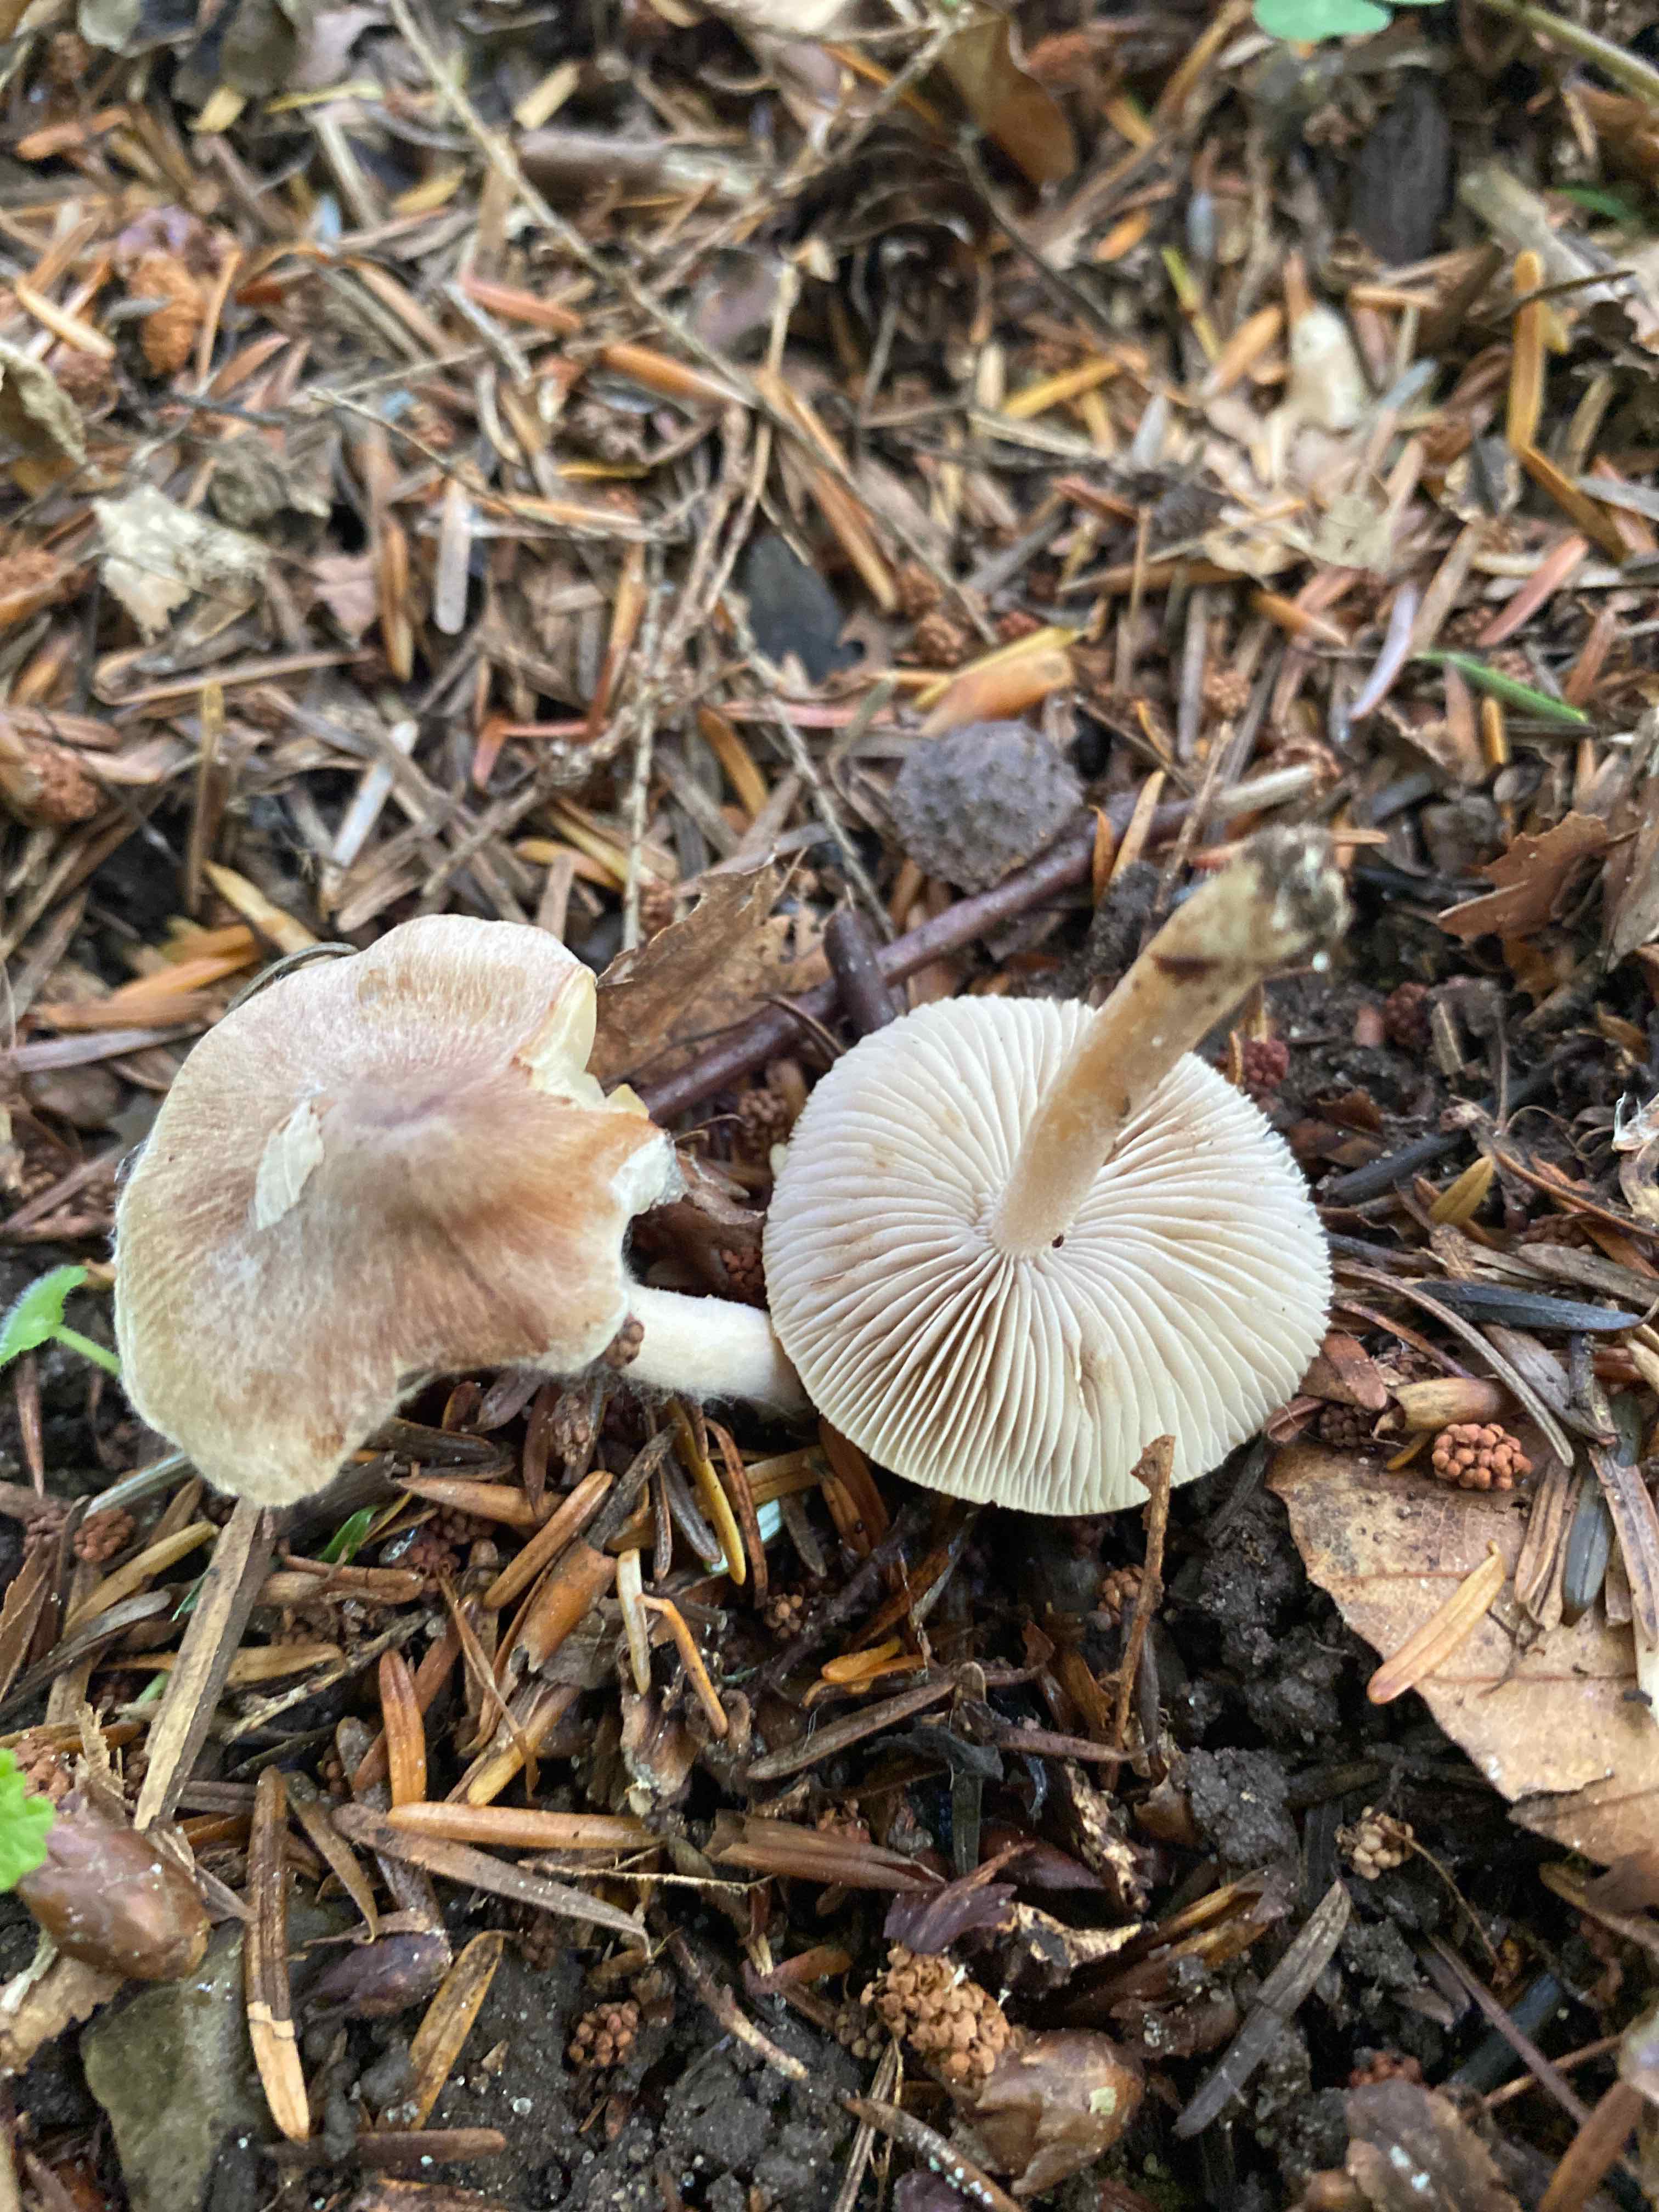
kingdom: Fungi
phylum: Basidiomycota
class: Agaricomycetes
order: Agaricales
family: Inocybaceae
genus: Inocybe
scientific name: Inocybe
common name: trævlhat
